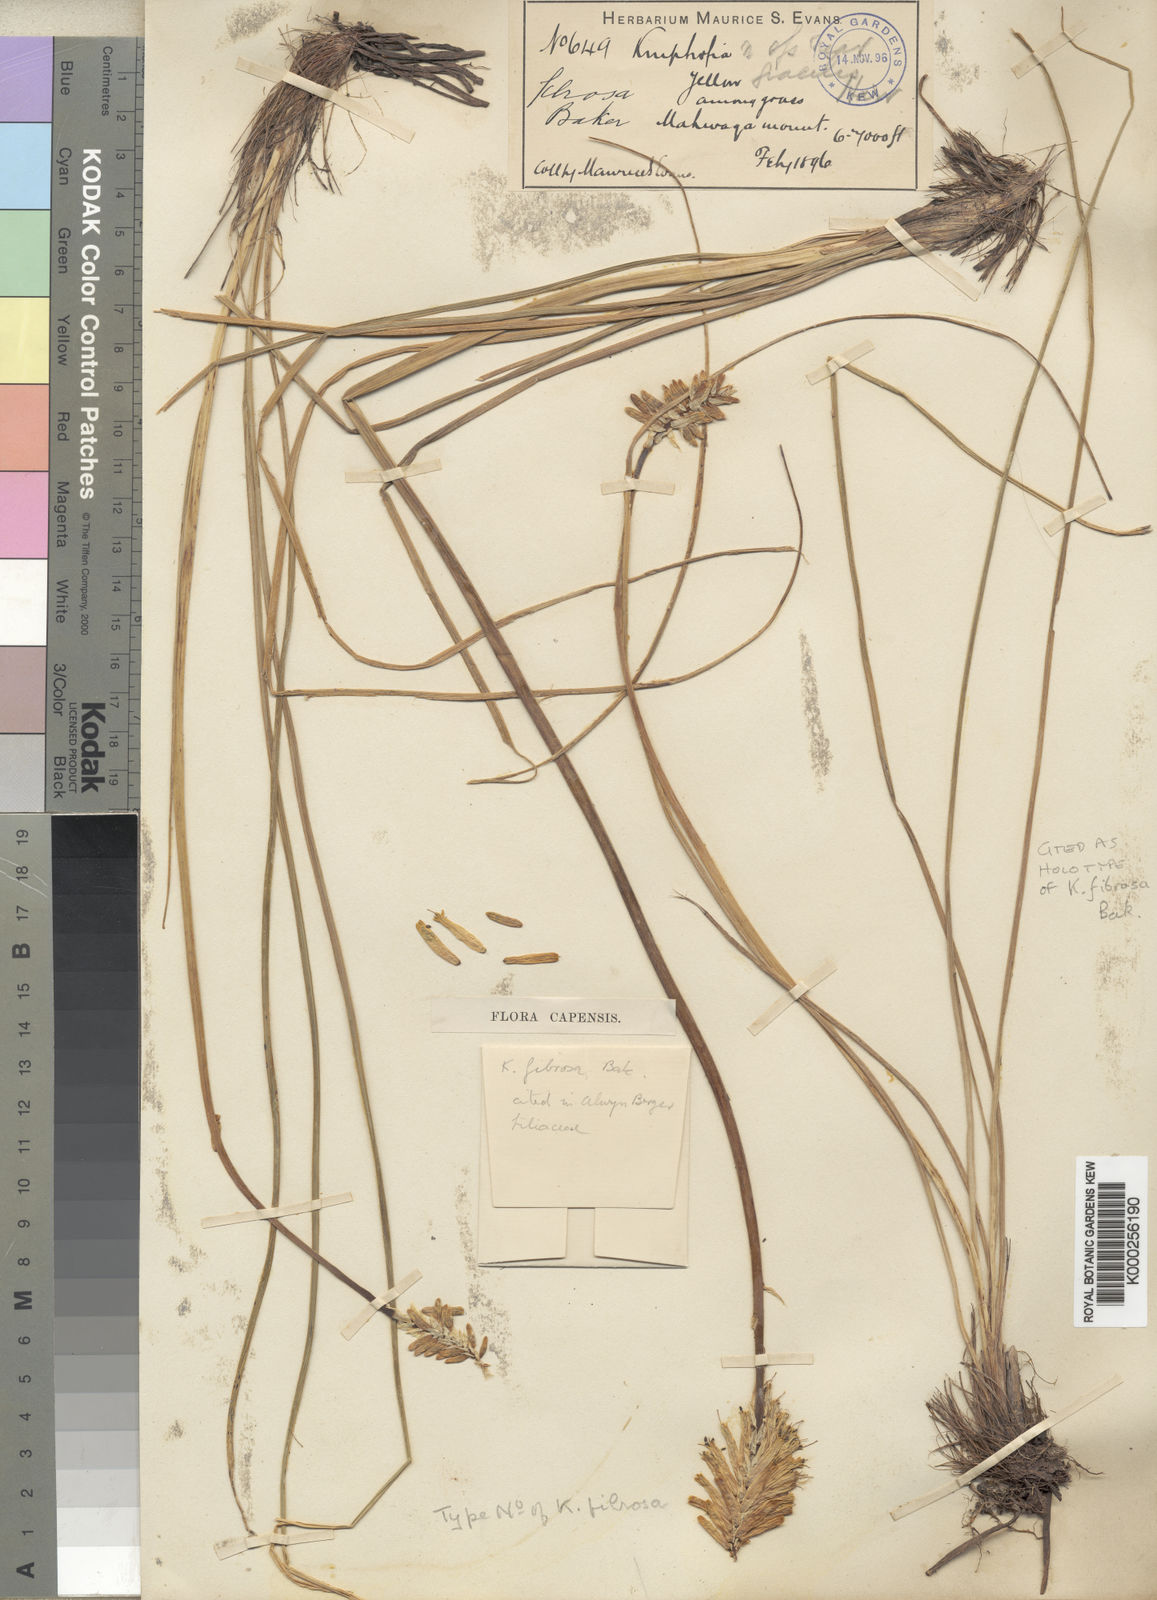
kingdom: Plantae
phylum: Tracheophyta
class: Liliopsida
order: Asparagales
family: Asphodelaceae
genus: Kniphofia
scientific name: Kniphofia fibrosa
